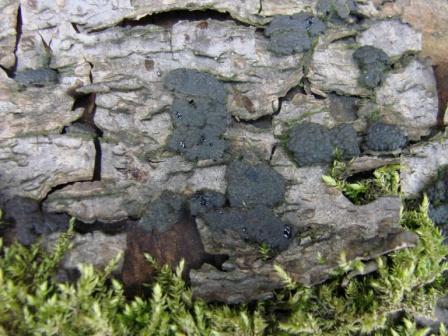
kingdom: Fungi
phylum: Ascomycota
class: Sordariomycetes
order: Xylariales
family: Hypoxylaceae
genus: Jackrogersella
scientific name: Jackrogersella multiformis
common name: foranderlig kulbær
